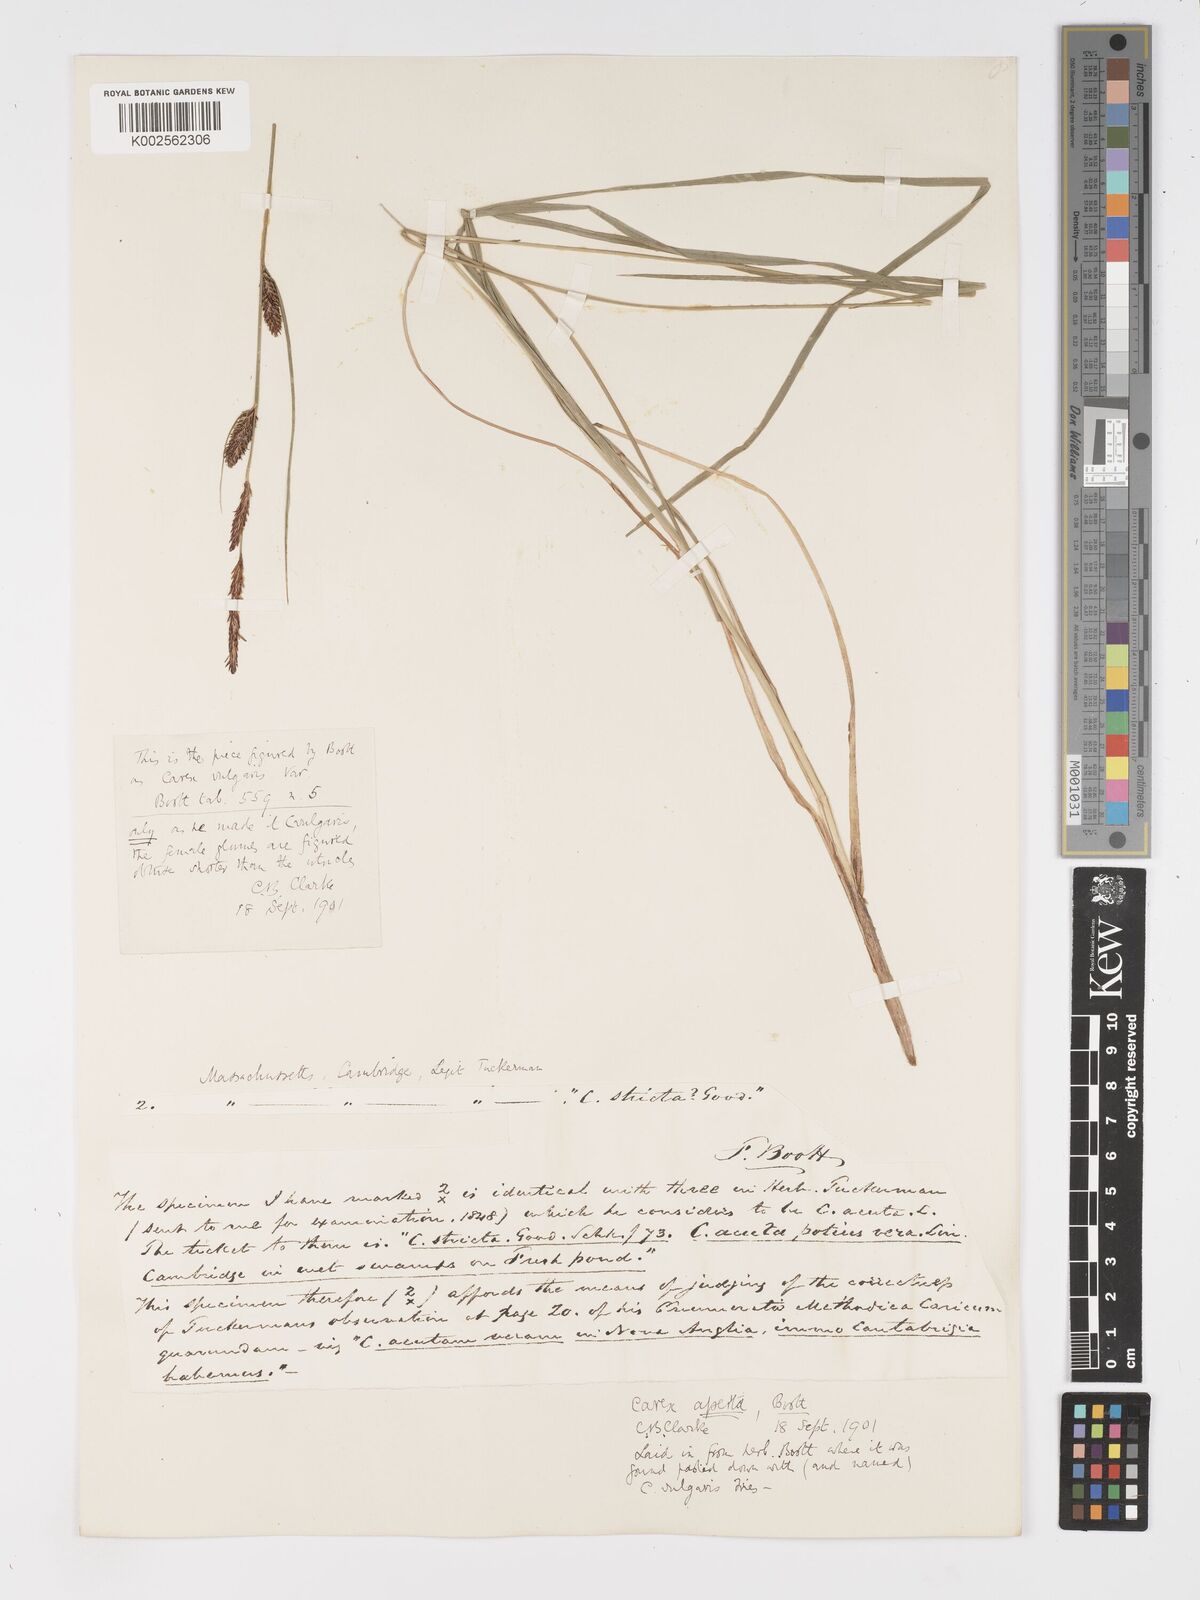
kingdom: Plantae
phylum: Tracheophyta
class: Liliopsida
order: Poales
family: Cyperaceae
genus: Carex
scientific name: Carex aperta
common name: Columbia sedge
